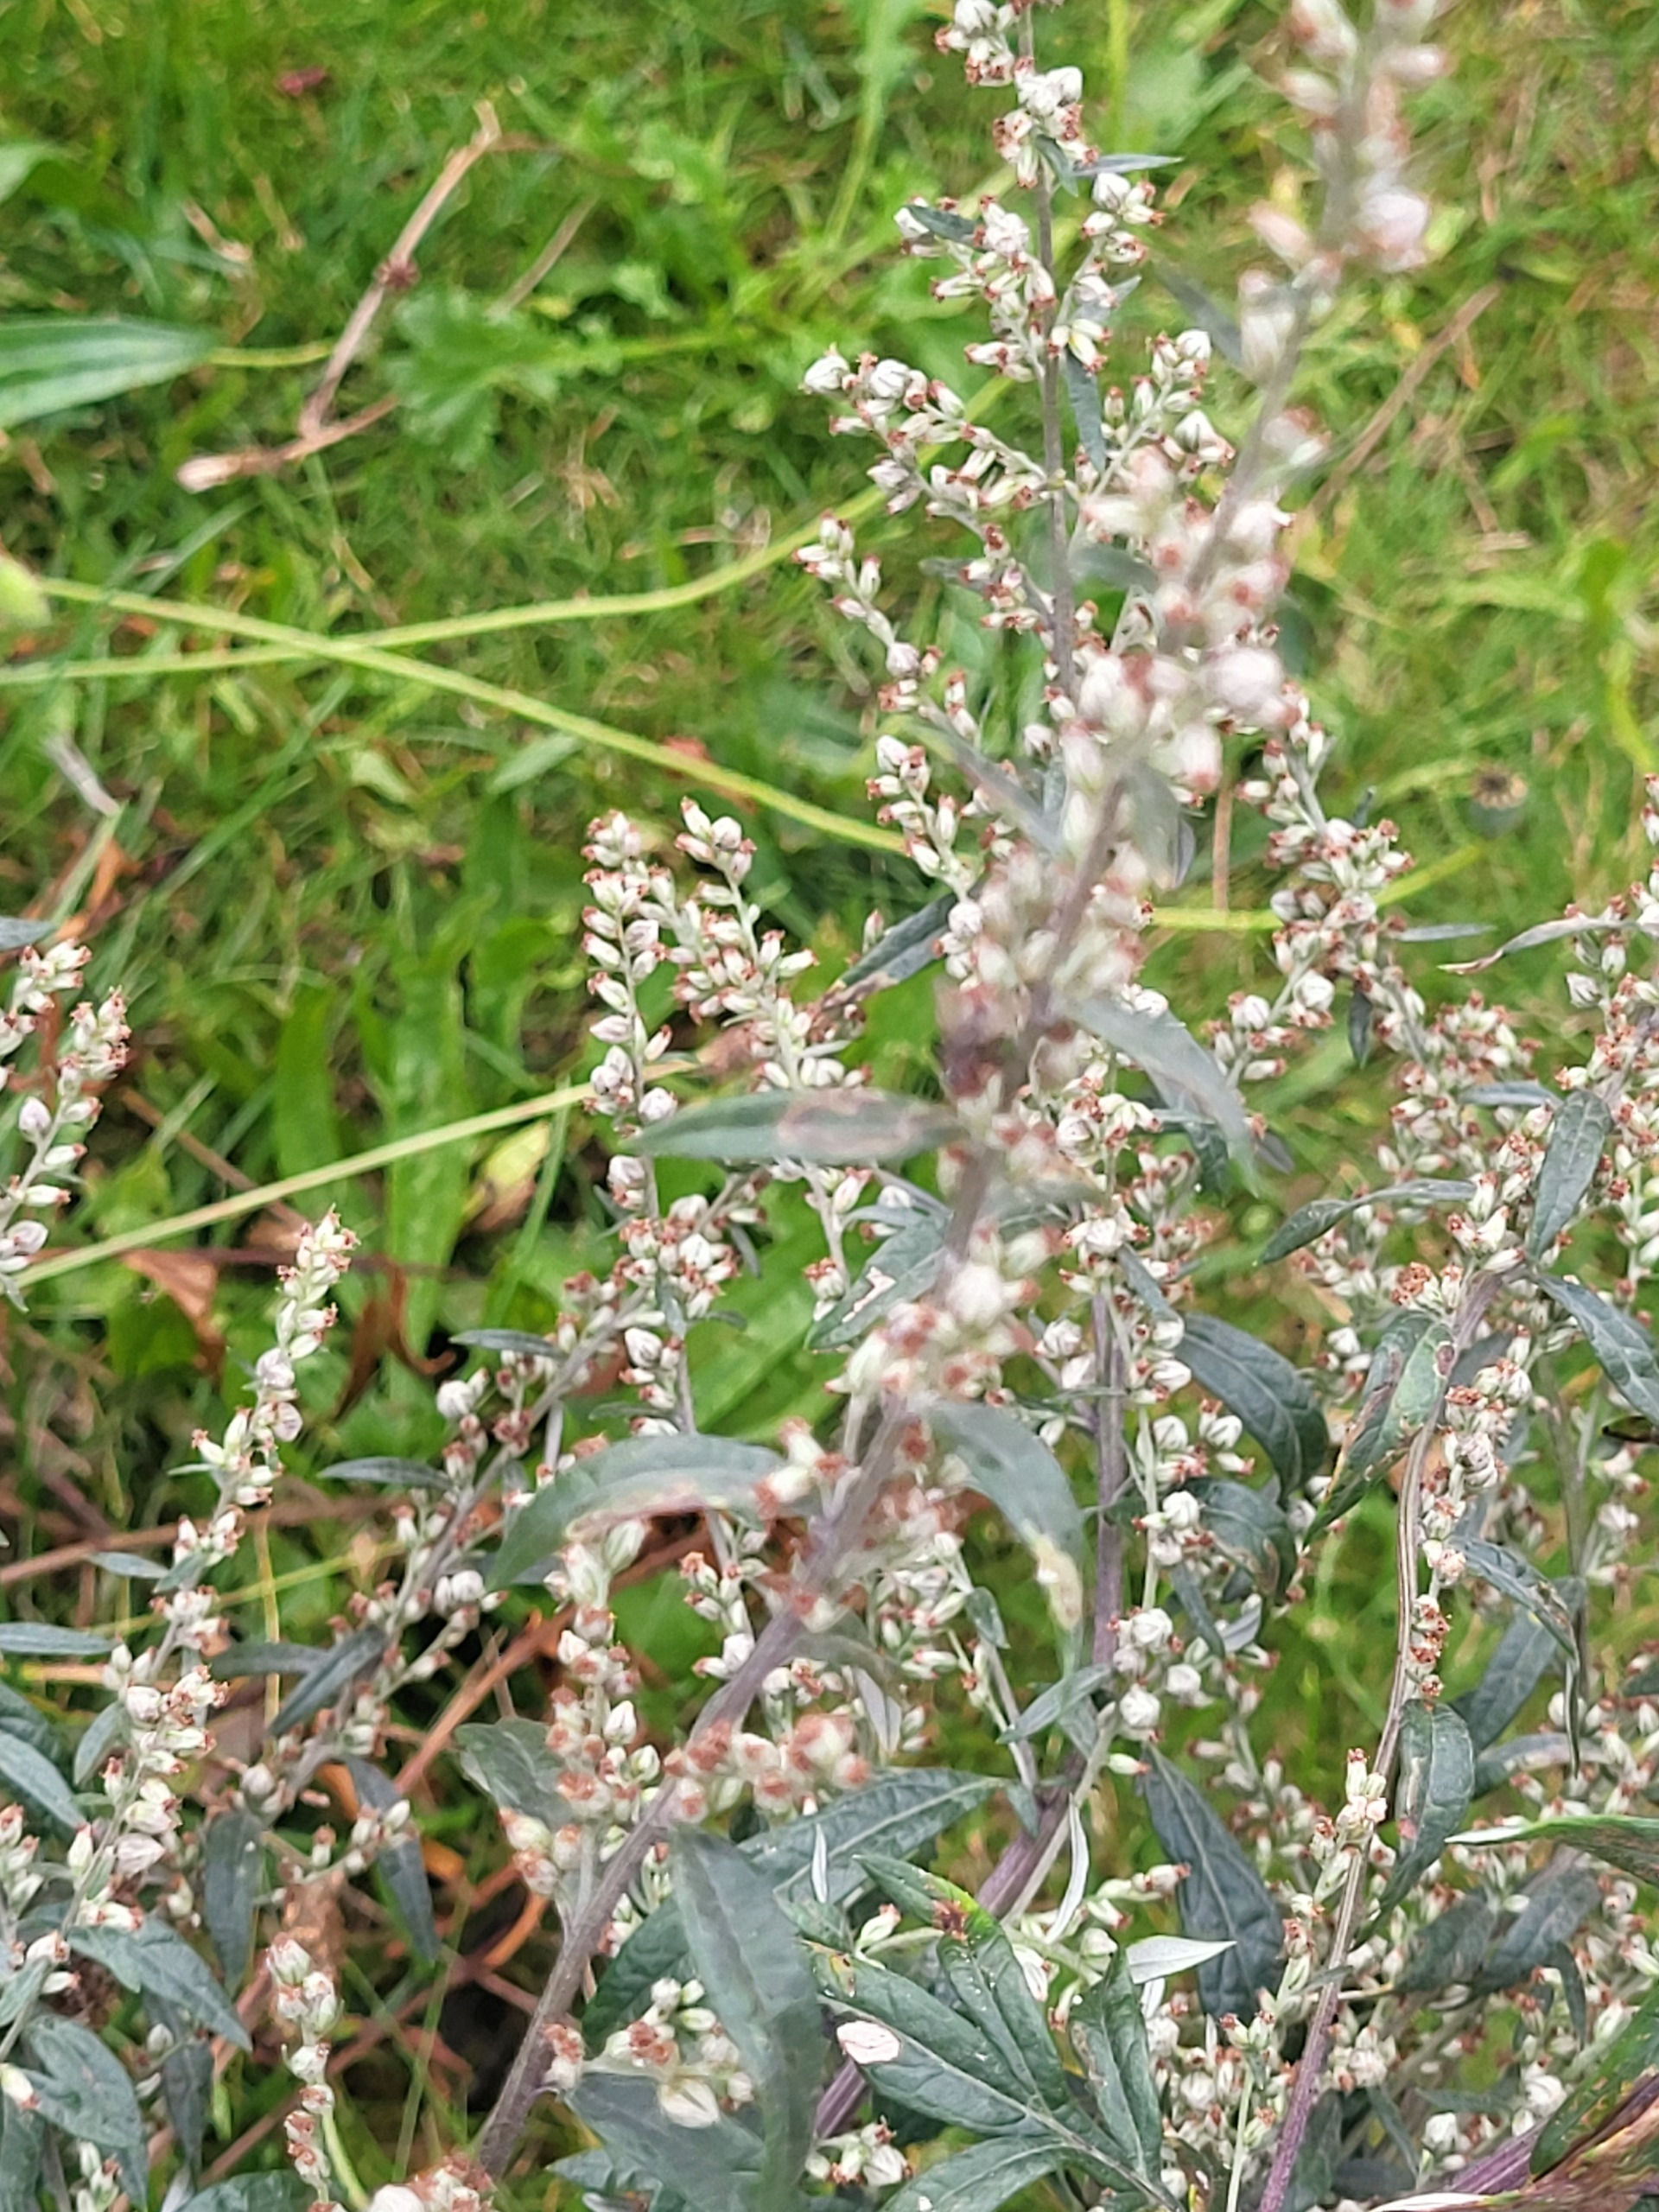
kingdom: Plantae
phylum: Tracheophyta
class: Magnoliopsida
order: Asterales
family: Asteraceae
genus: Artemisia
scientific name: Artemisia vulgaris
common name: Grå-bynke
